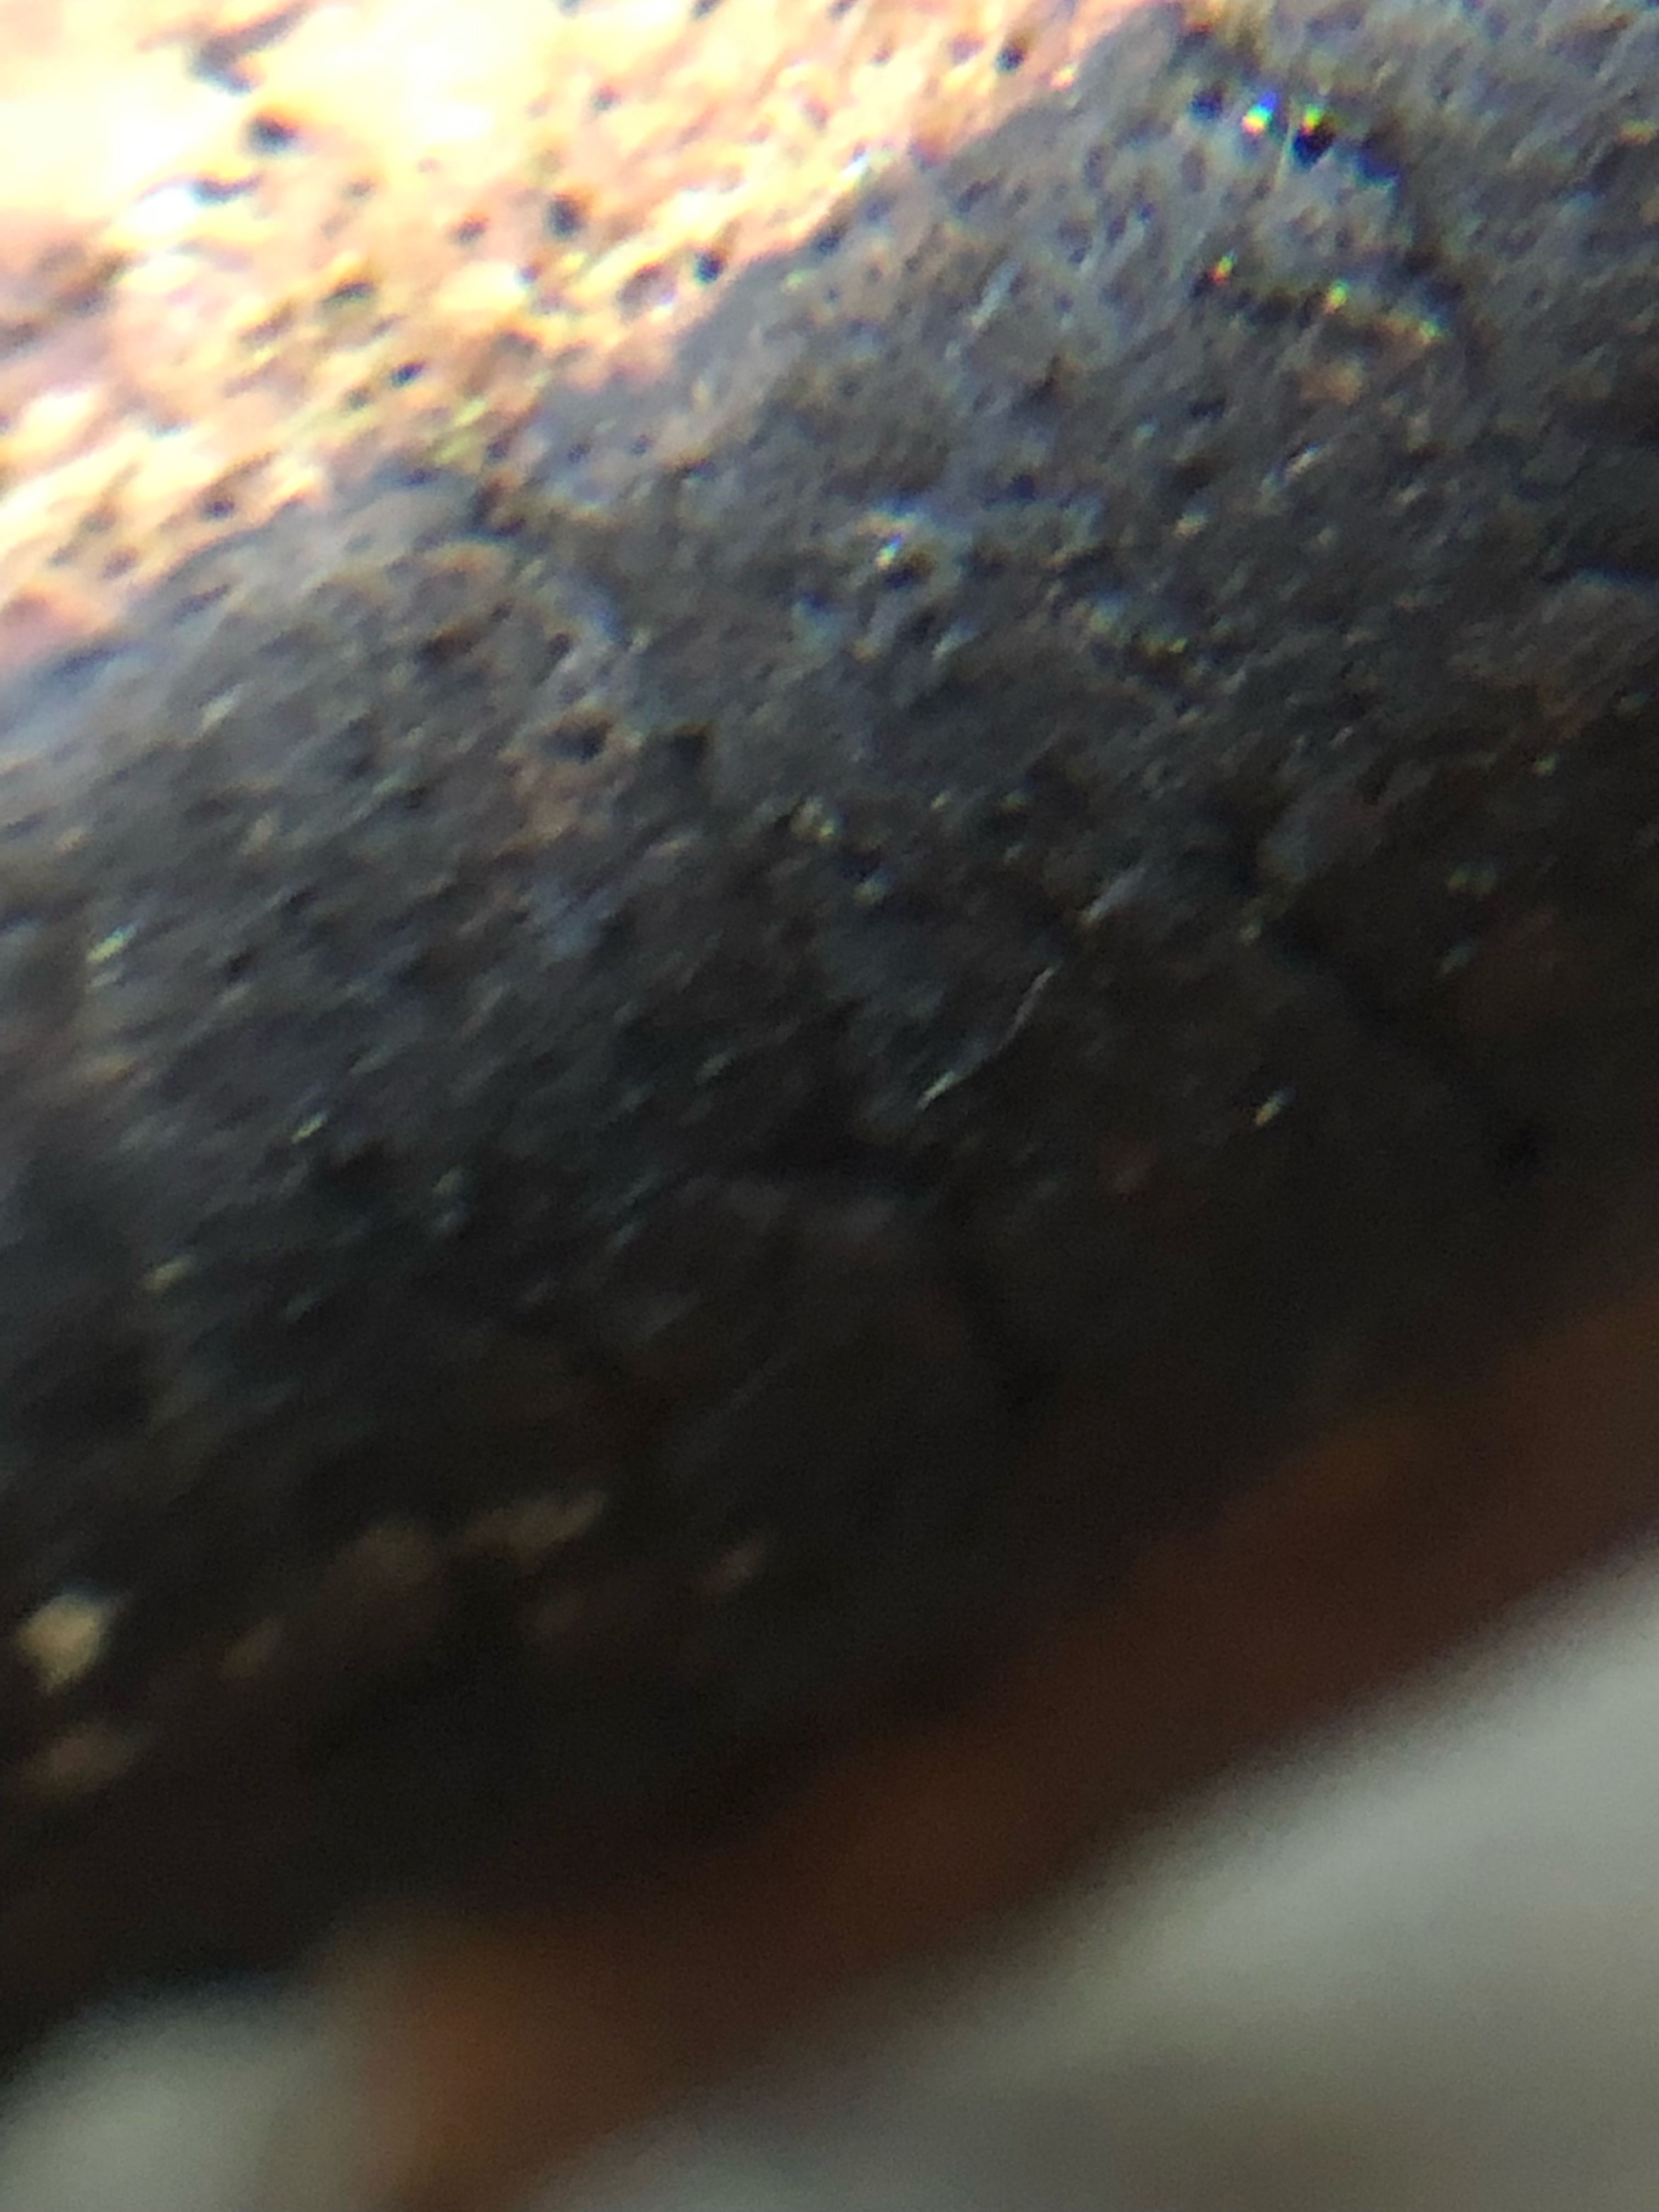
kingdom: Fungi
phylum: Ascomycota
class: Sordariomycetes
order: Xylariales
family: Diatrypaceae
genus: Diatrype
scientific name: Diatrype decorticata
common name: barksprænger-kulskorpe
